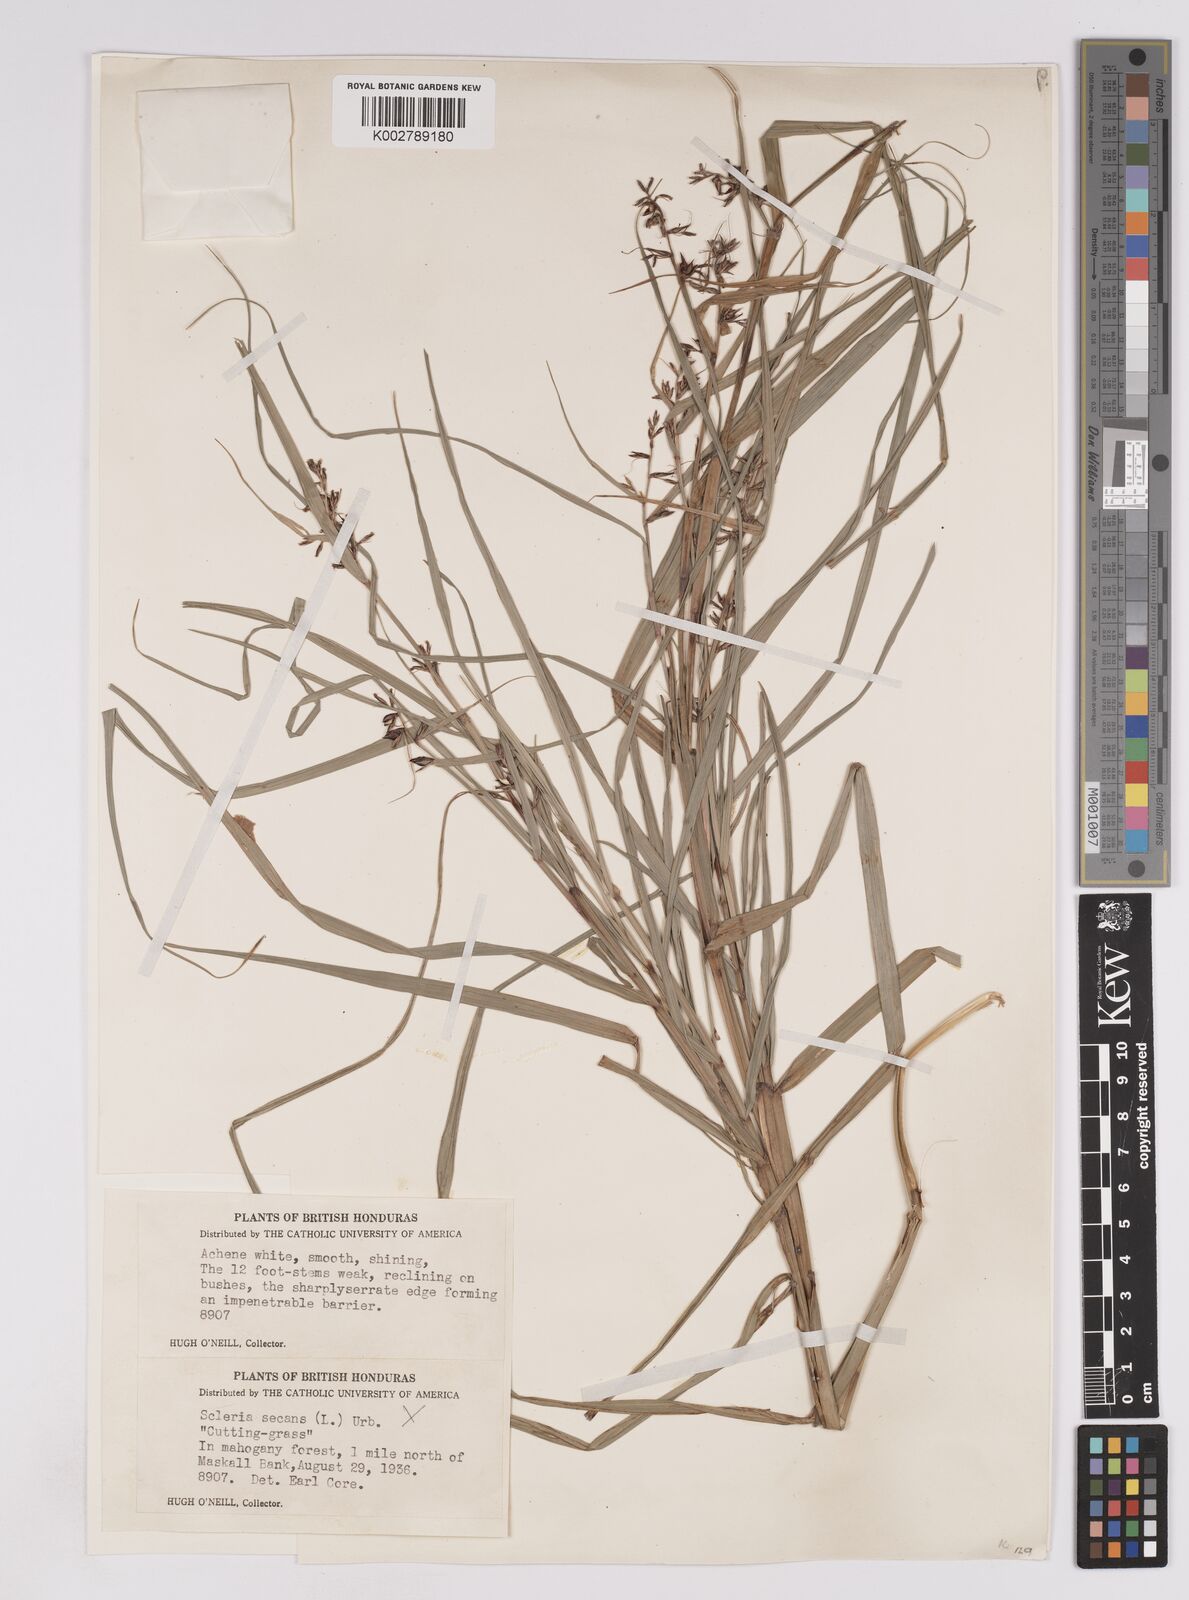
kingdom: Plantae
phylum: Tracheophyta
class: Liliopsida
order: Poales
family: Cyperaceae
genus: Scleria
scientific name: Scleria secans
